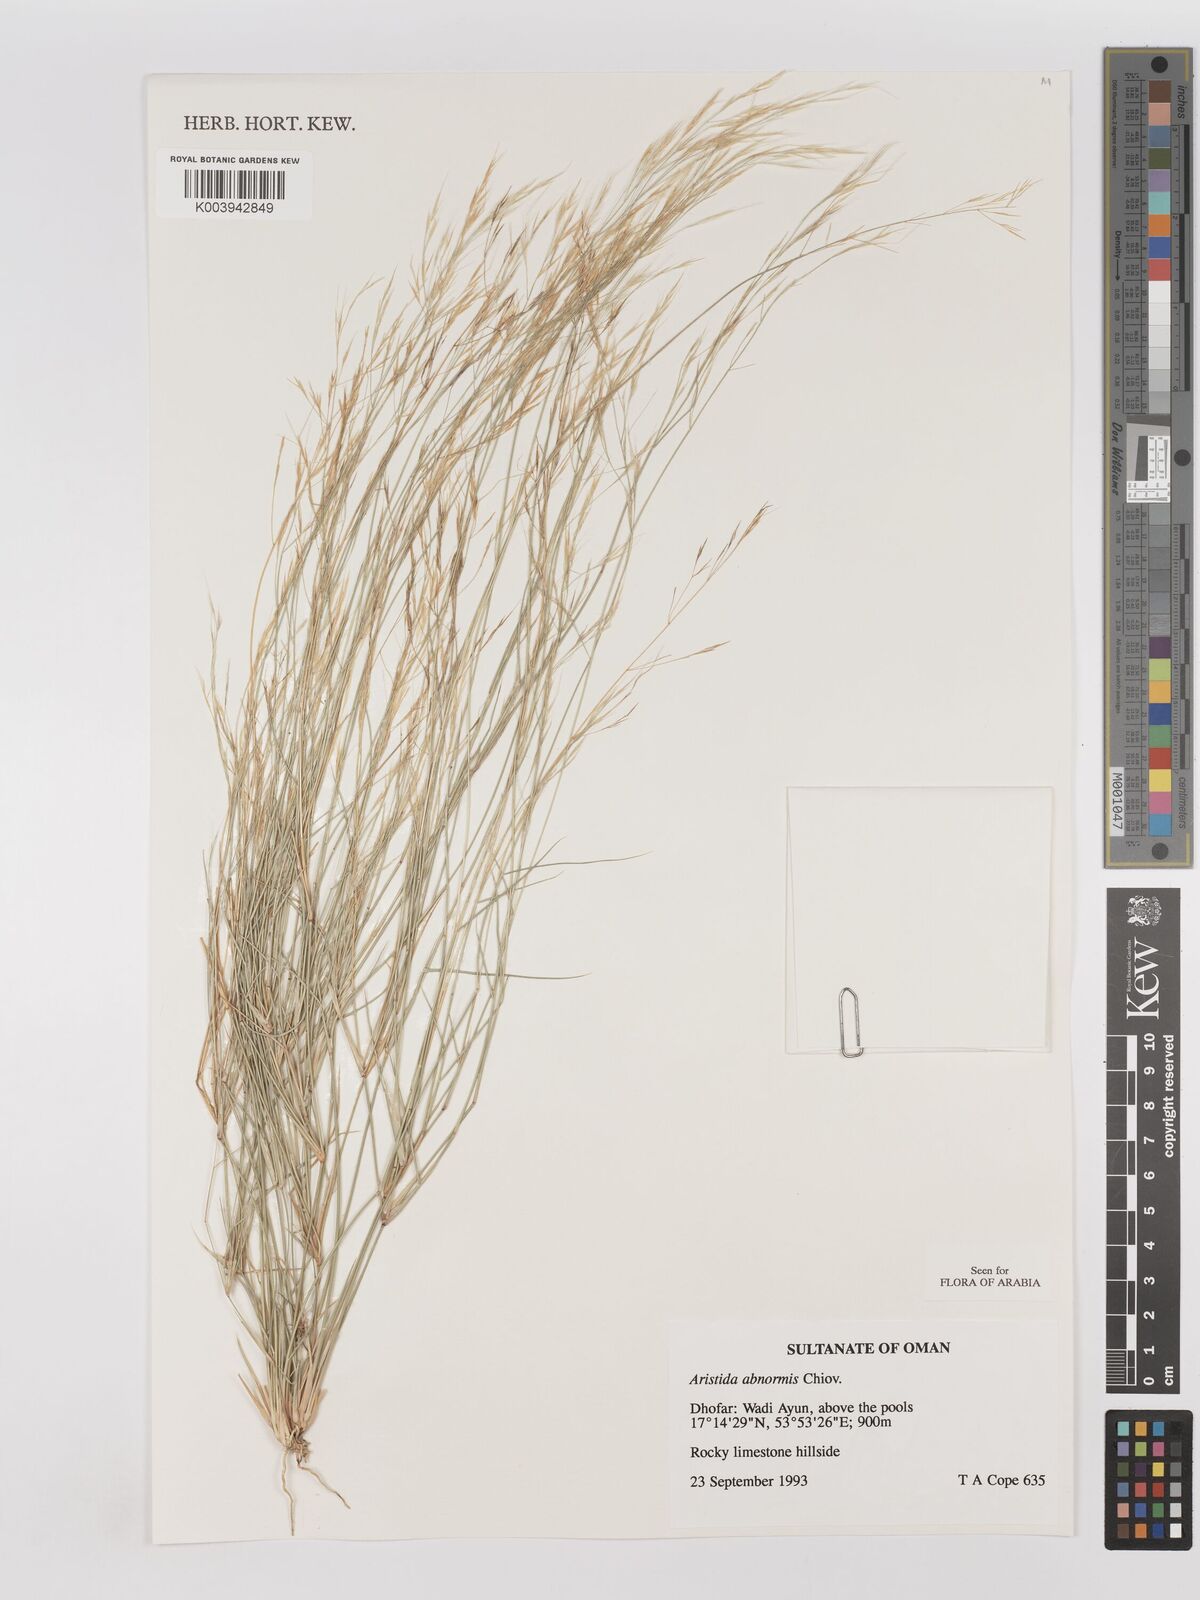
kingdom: Plantae
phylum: Tracheophyta
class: Liliopsida
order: Poales
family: Poaceae
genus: Aristida
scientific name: Aristida abnormis
